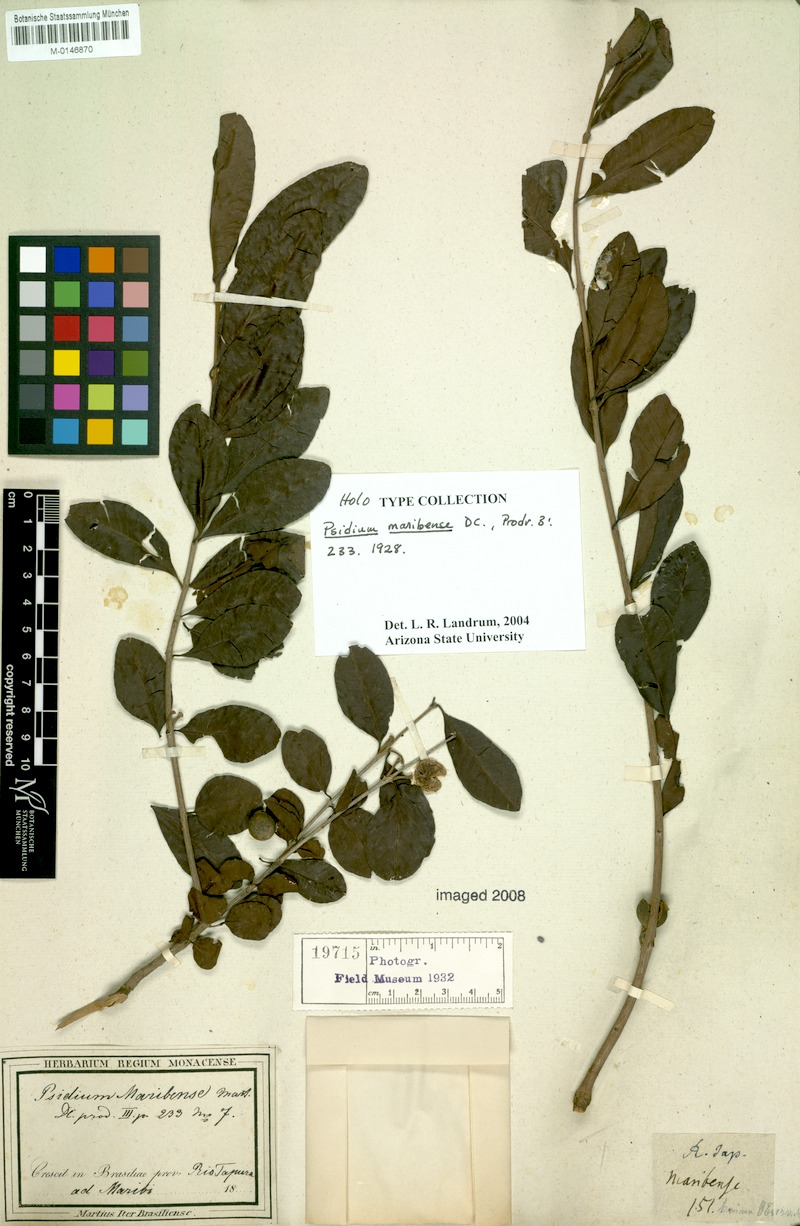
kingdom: Plantae
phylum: Tracheophyta
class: Magnoliopsida
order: Myrtales
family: Myrtaceae
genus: Psidium
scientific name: Psidium maribense
